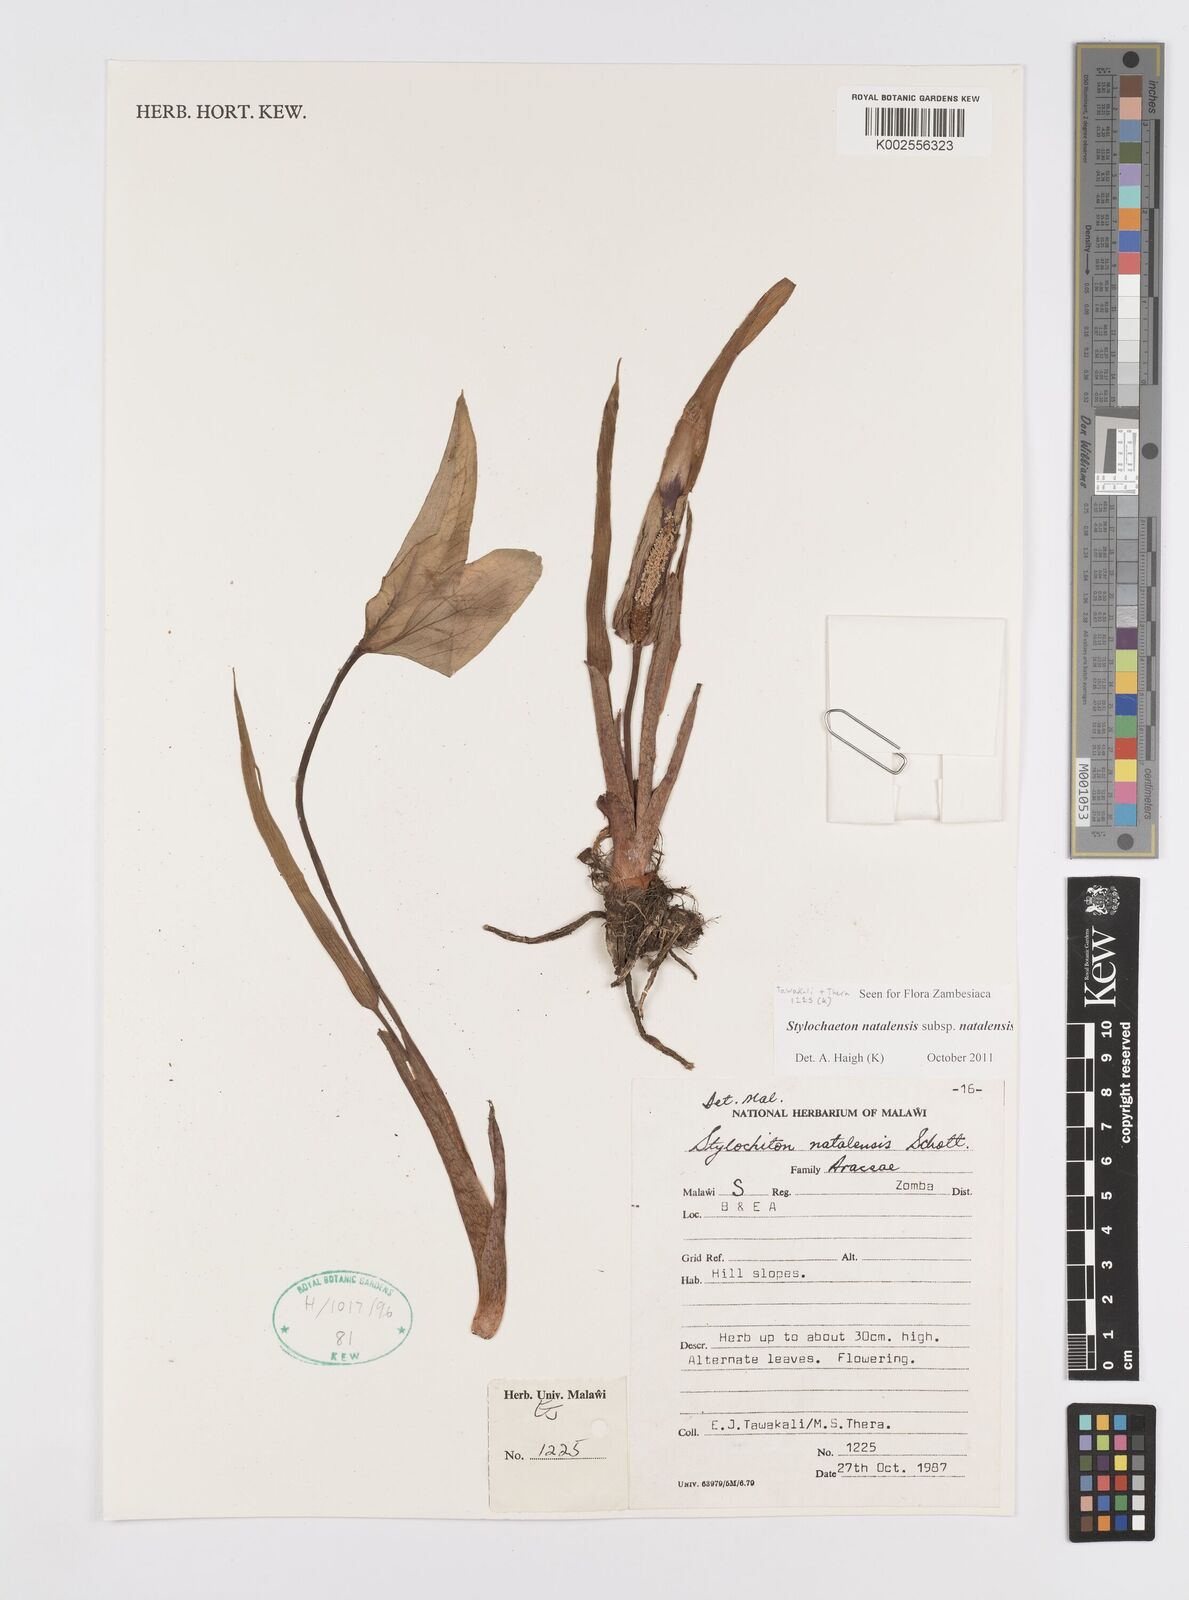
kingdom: Plantae
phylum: Tracheophyta
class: Liliopsida
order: Alismatales
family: Araceae
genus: Stylochaeton
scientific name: Stylochaeton natalense
